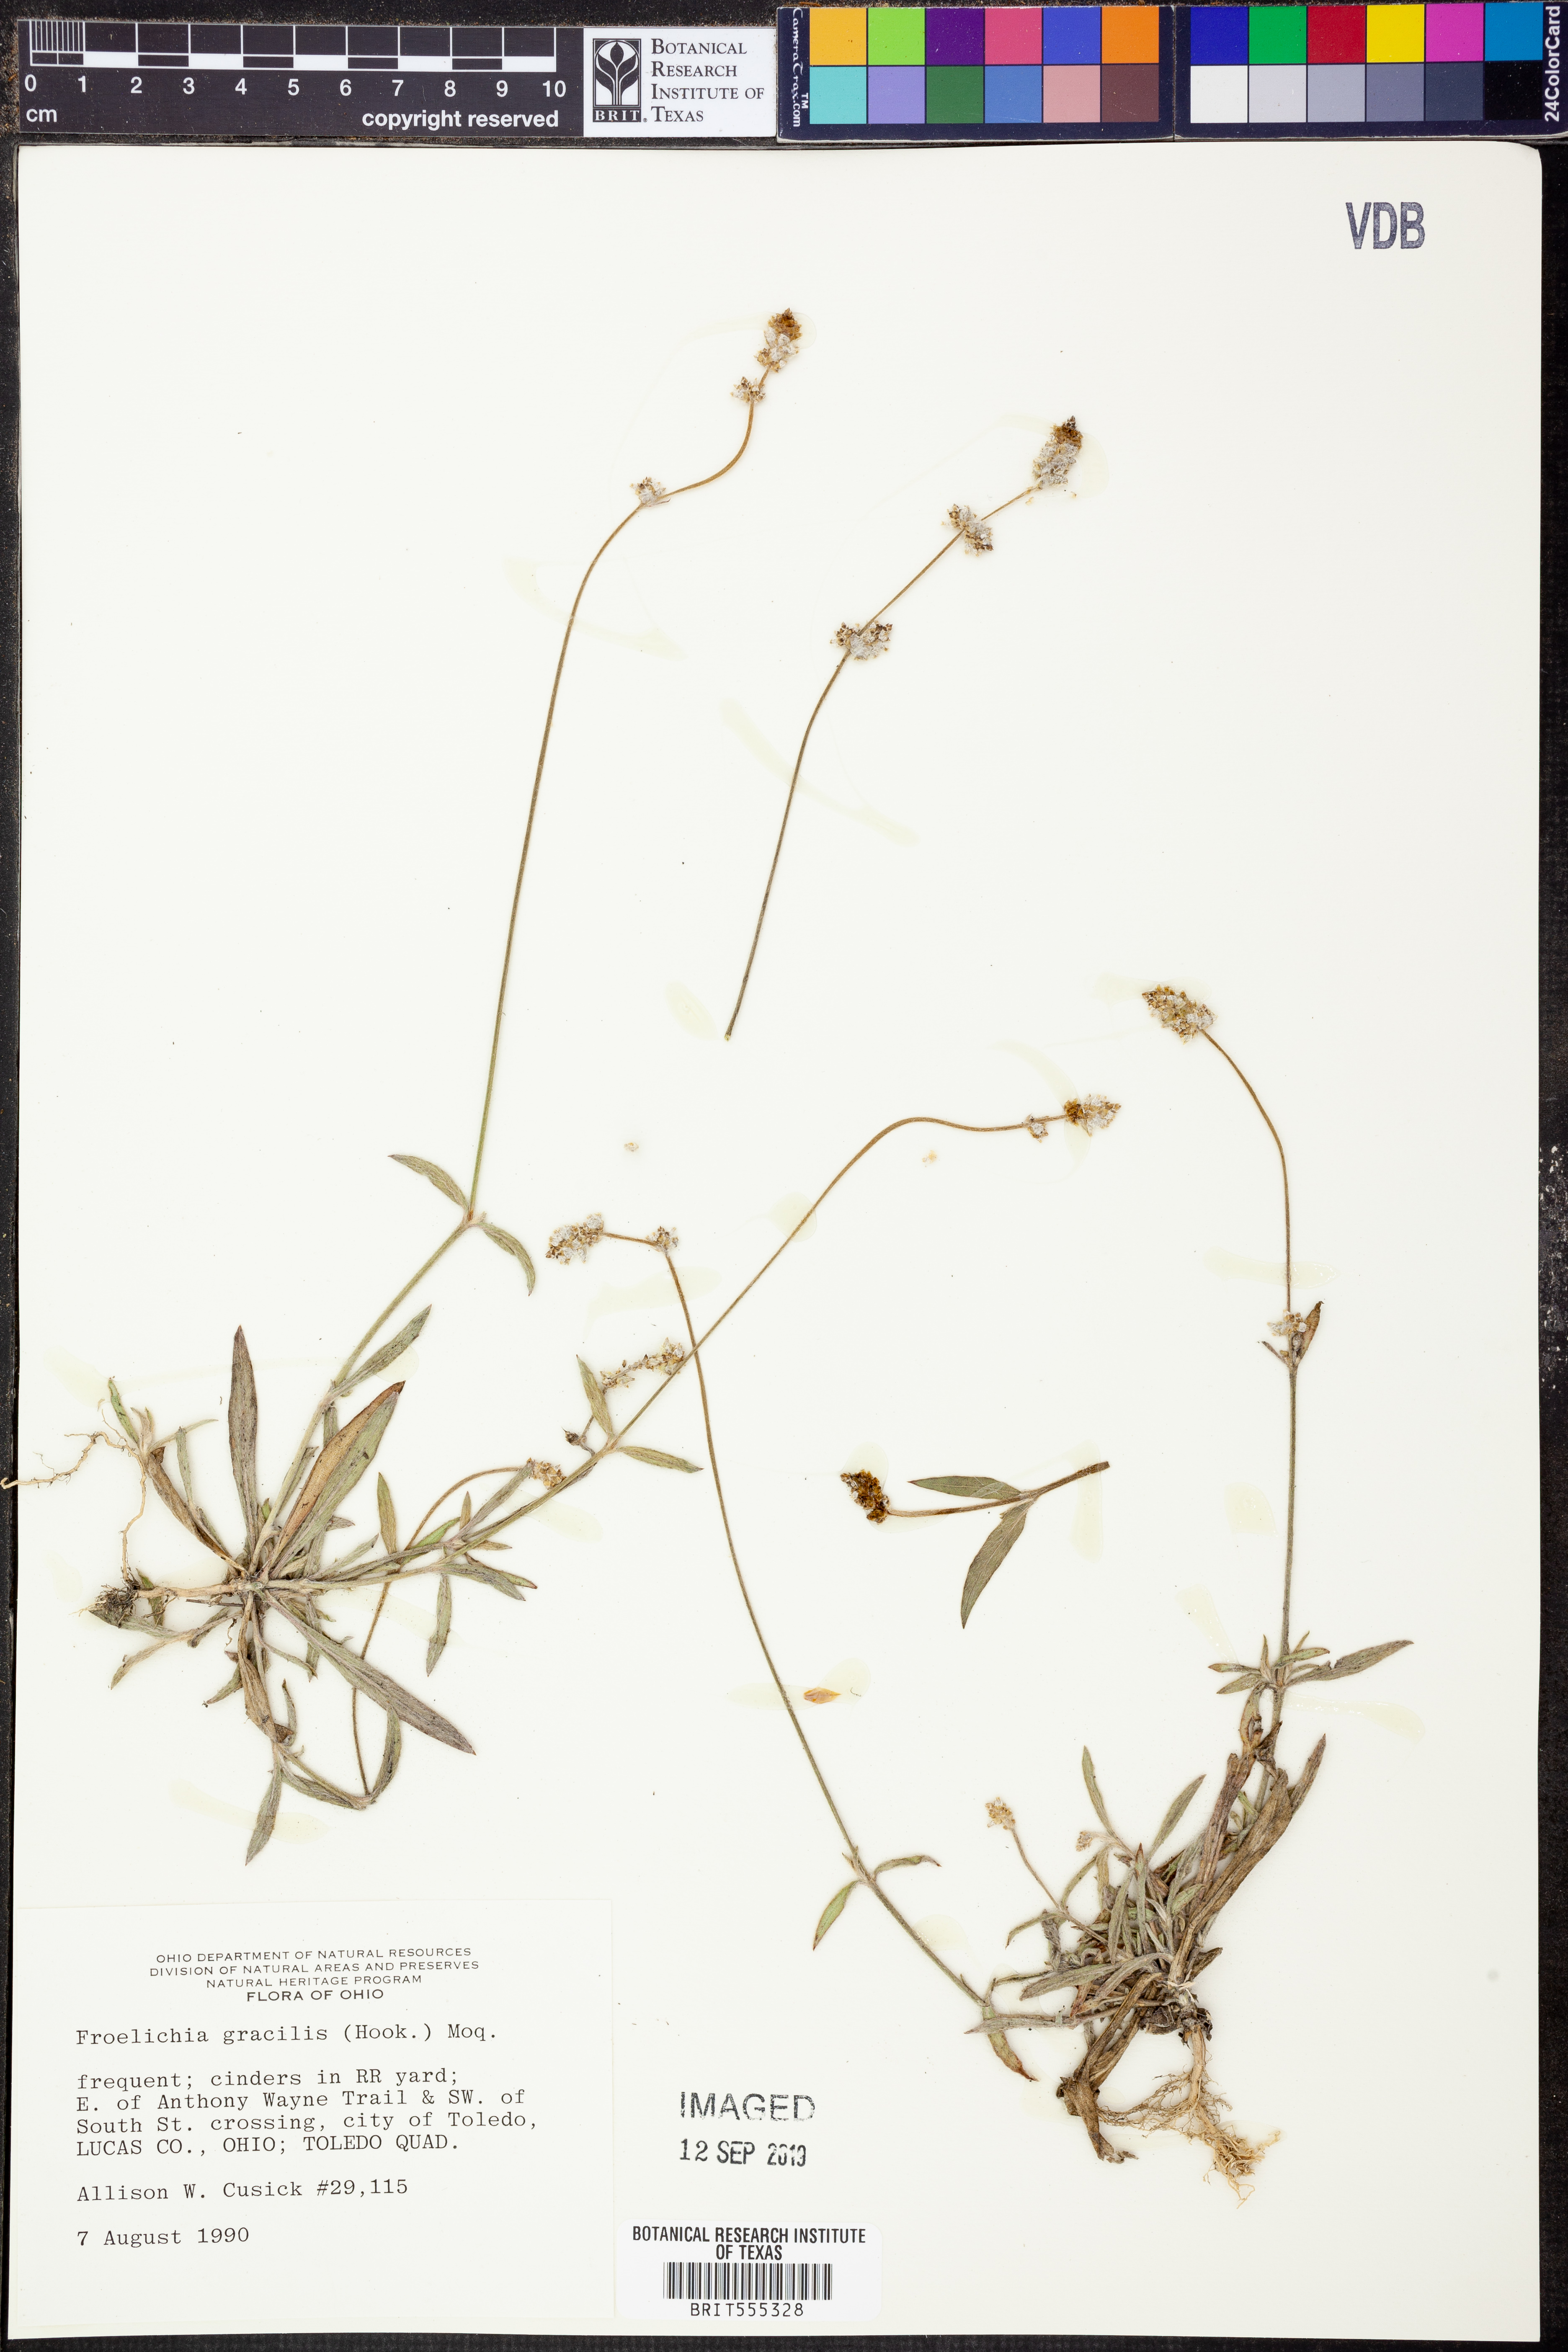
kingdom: Plantae
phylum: Tracheophyta
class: Magnoliopsida
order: Caryophyllales
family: Amaranthaceae
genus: Froelichia
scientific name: Froelichia gracilis
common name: Slender cottonweed
